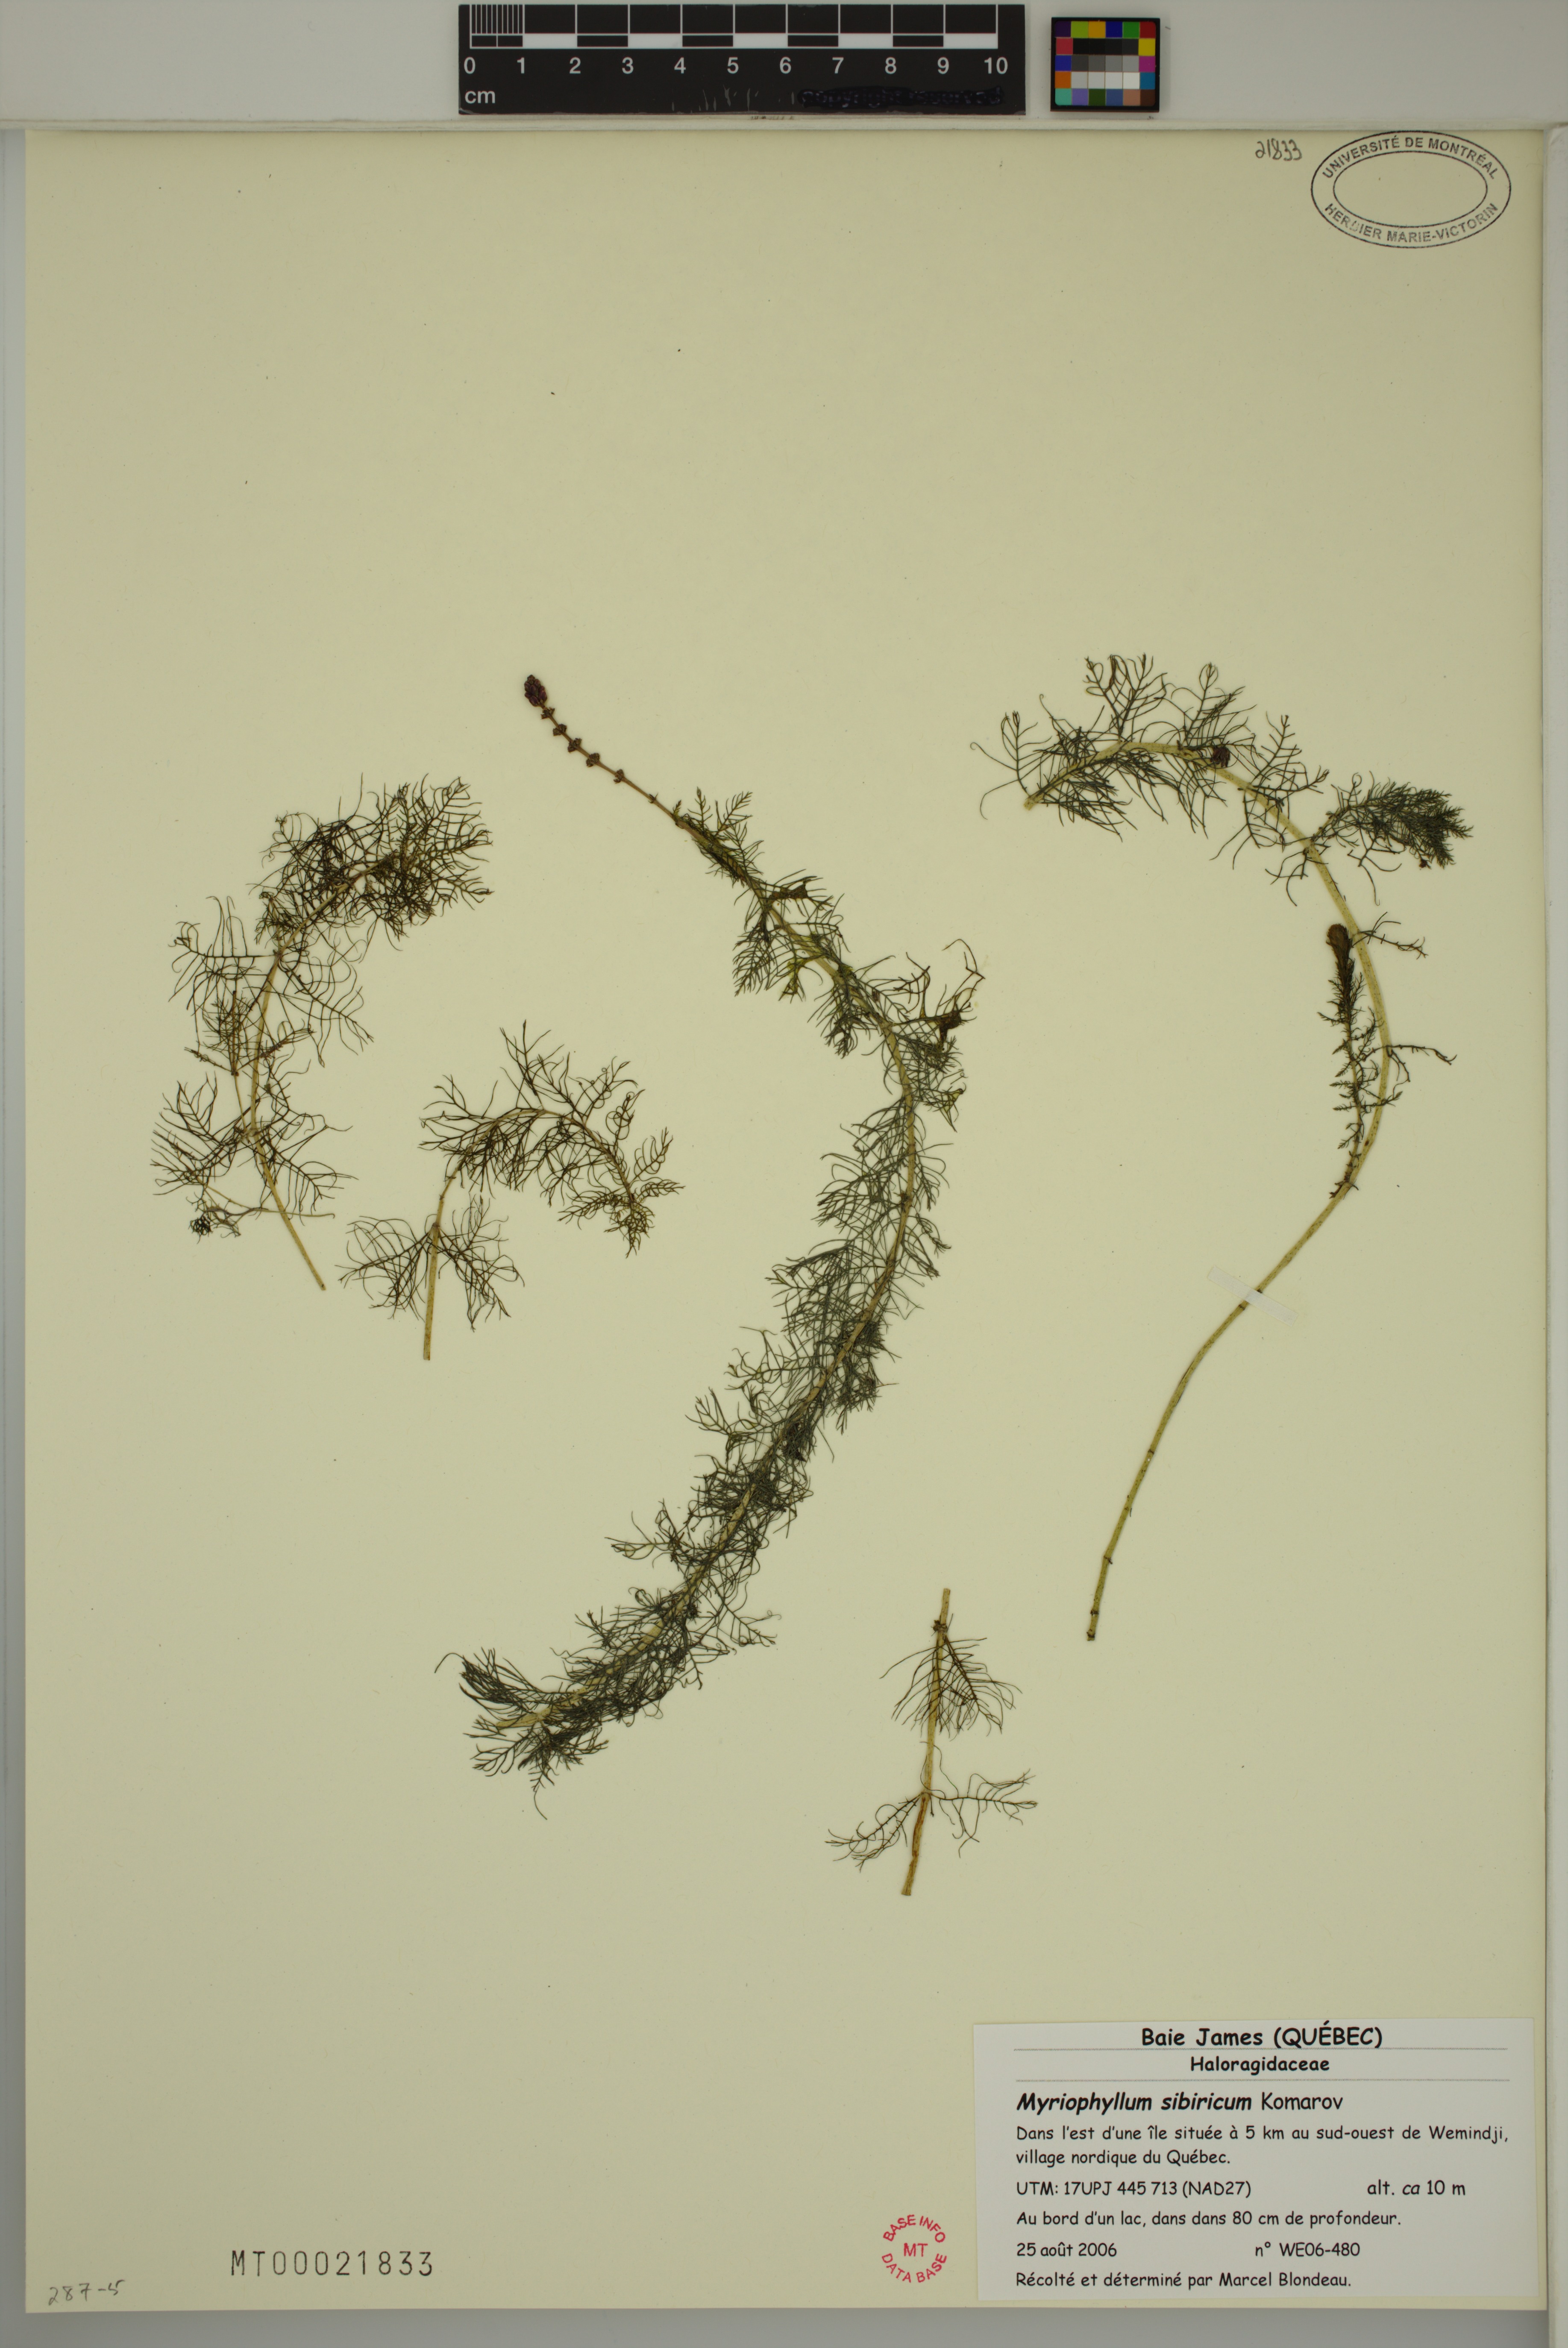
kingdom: Plantae
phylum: Tracheophyta
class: Magnoliopsida
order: Saxifragales
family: Haloragaceae
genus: Myriophyllum
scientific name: Myriophyllum sibiricum
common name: Siberian water-milfoil
